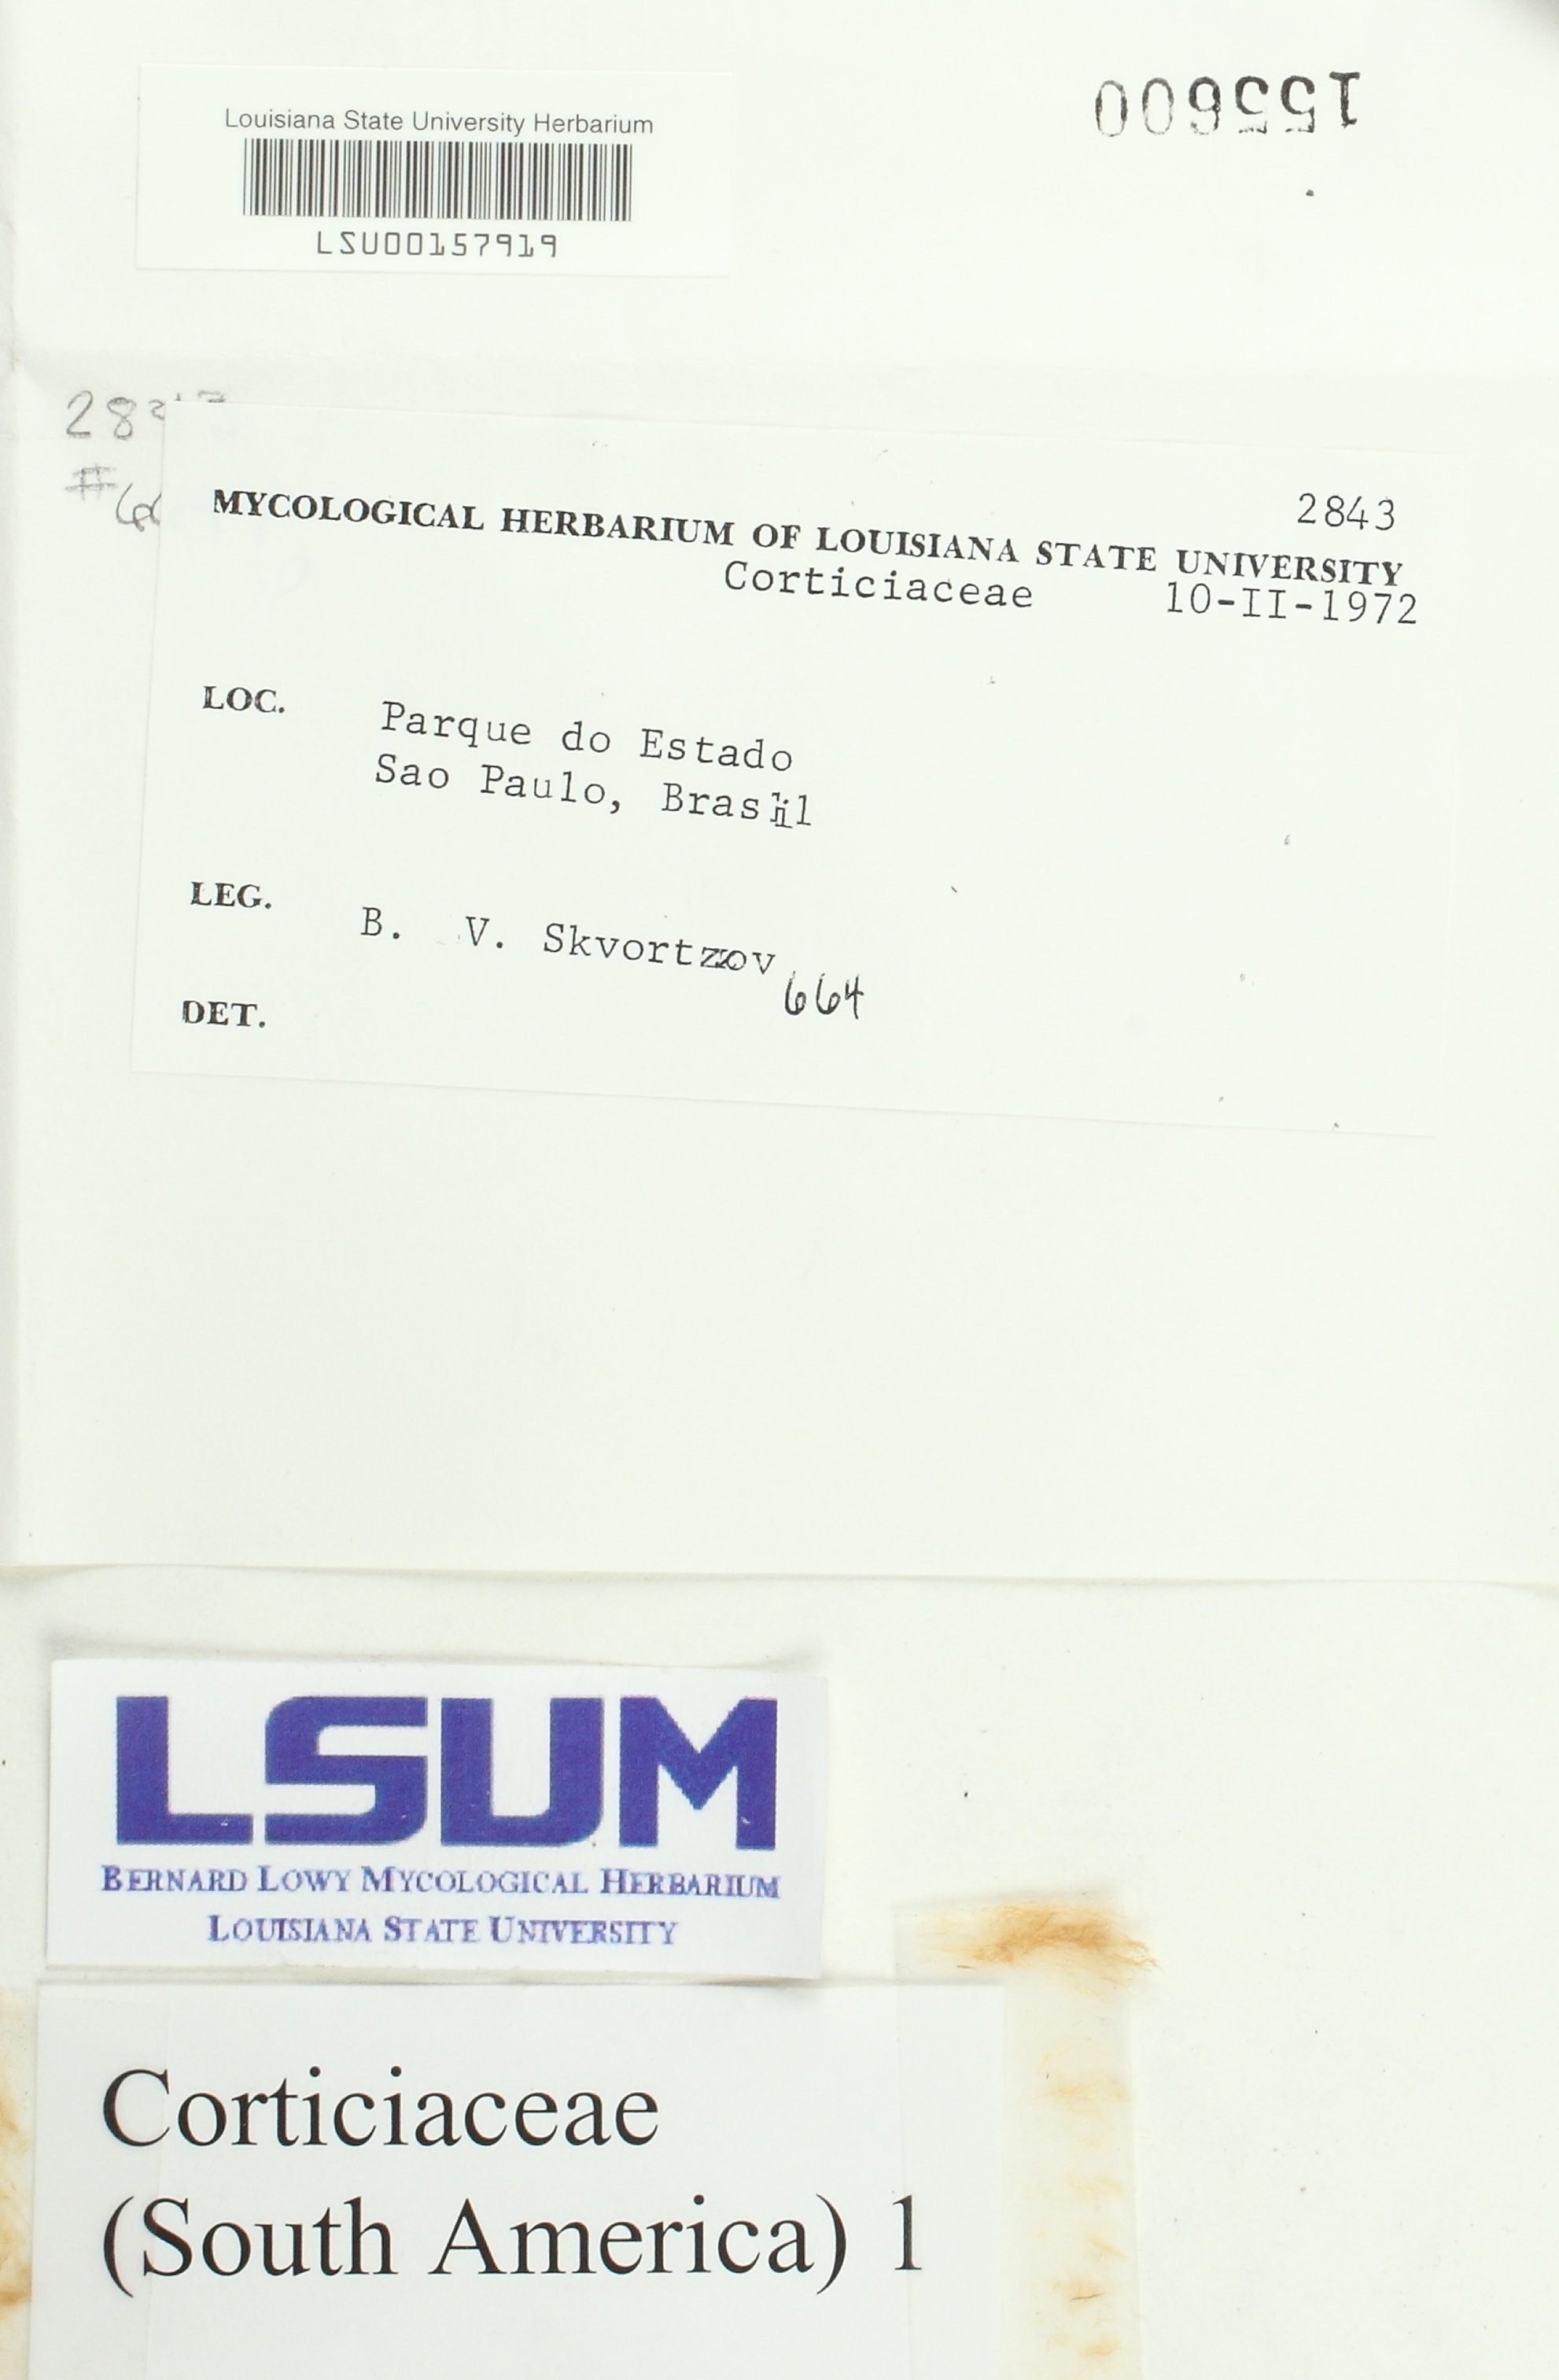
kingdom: Fungi
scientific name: Fungi
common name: Fungi
